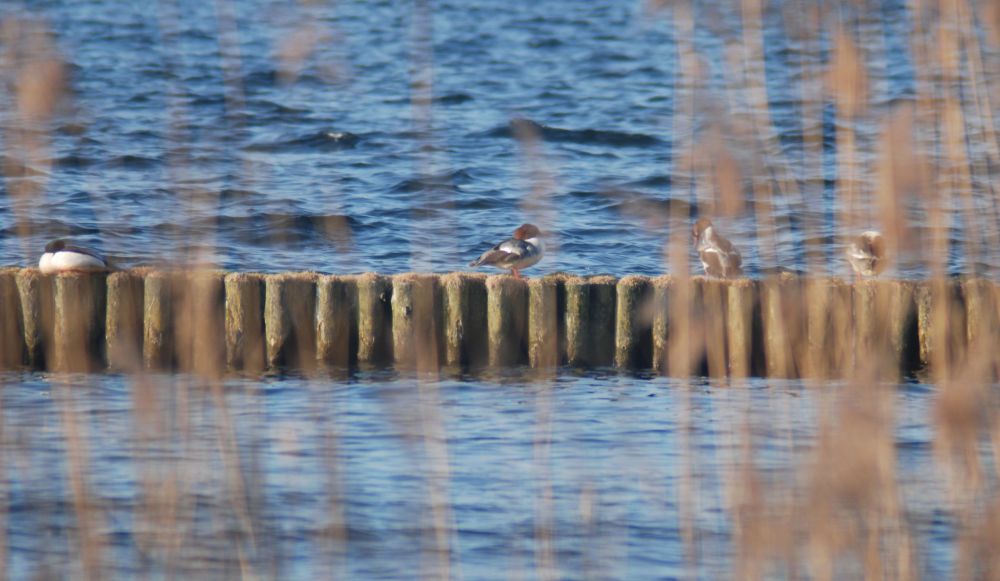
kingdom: Animalia
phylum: Chordata
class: Aves
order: Anseriformes
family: Anatidae
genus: Mergus
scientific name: Mergus merganser
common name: Common merganser
